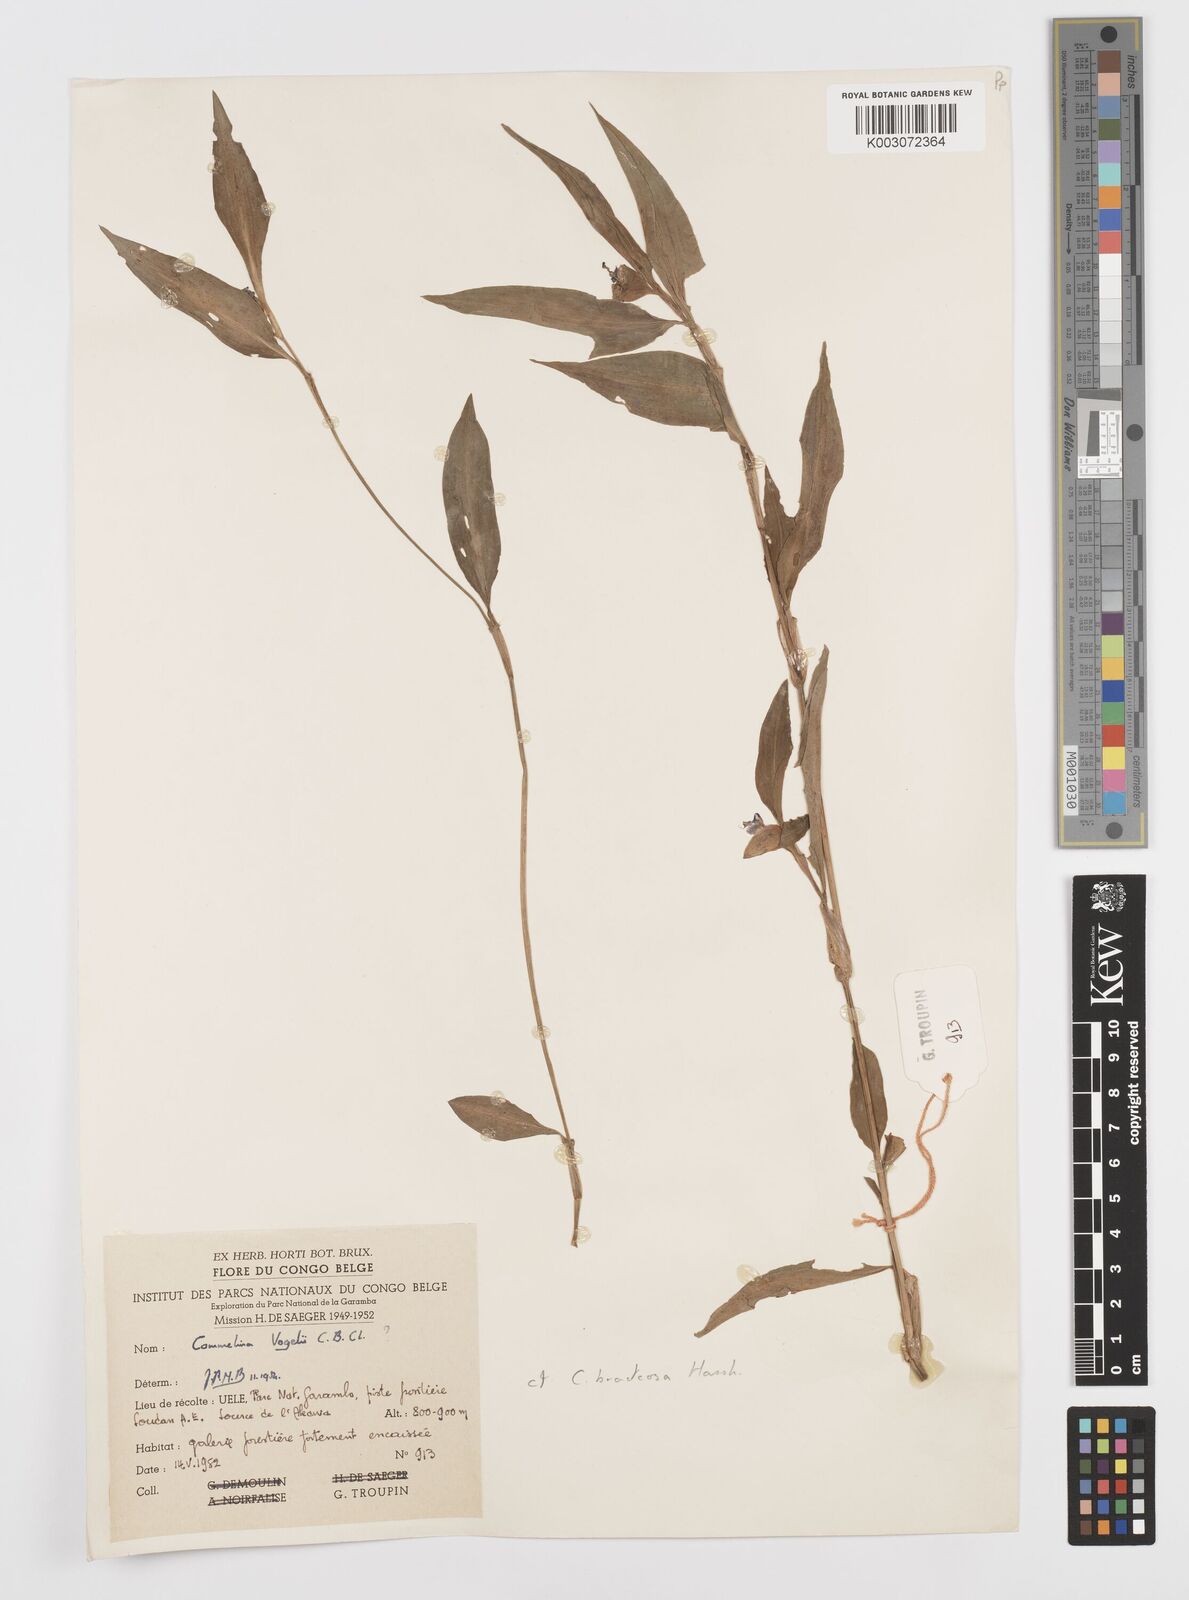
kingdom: Plantae
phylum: Tracheophyta
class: Liliopsida
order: Commelinales
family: Commelinaceae
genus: Commelina
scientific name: Commelina bracteosa
